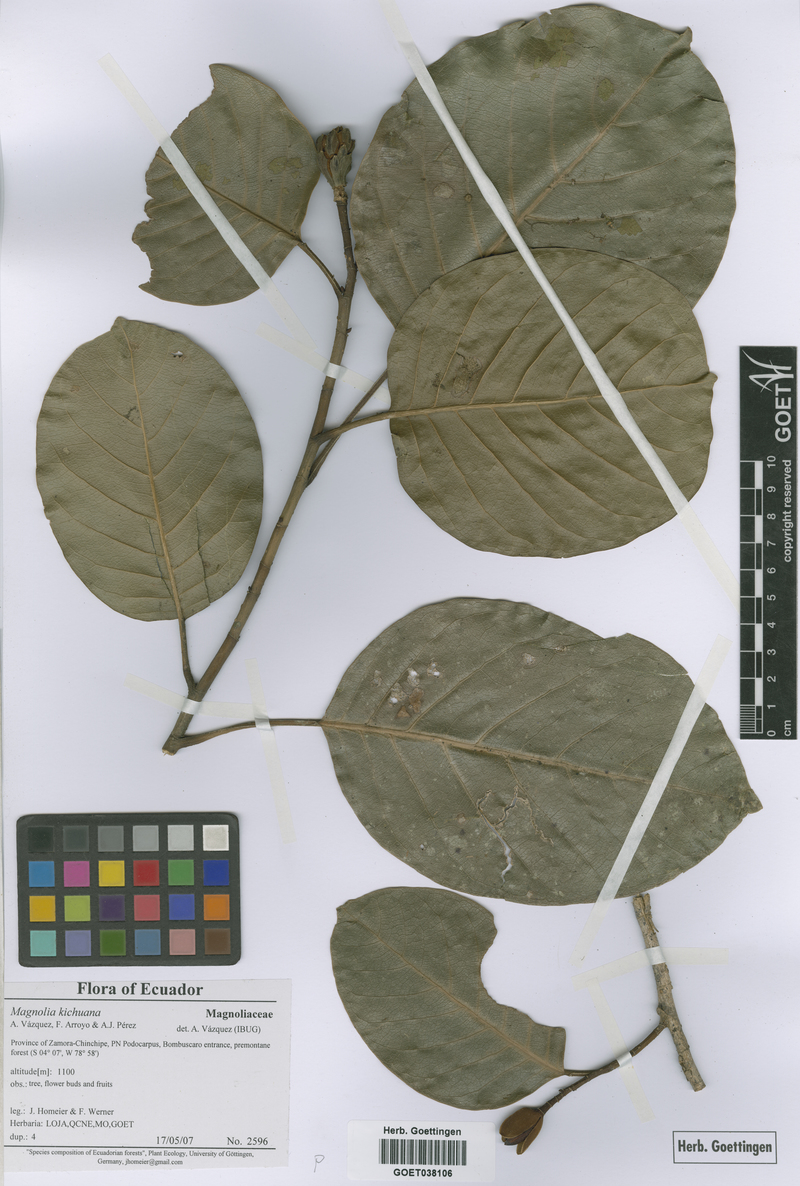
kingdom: Plantae
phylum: Tracheophyta
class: Magnoliopsida
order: Magnoliales
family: Magnoliaceae
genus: Magnolia
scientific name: Magnolia kichuana
